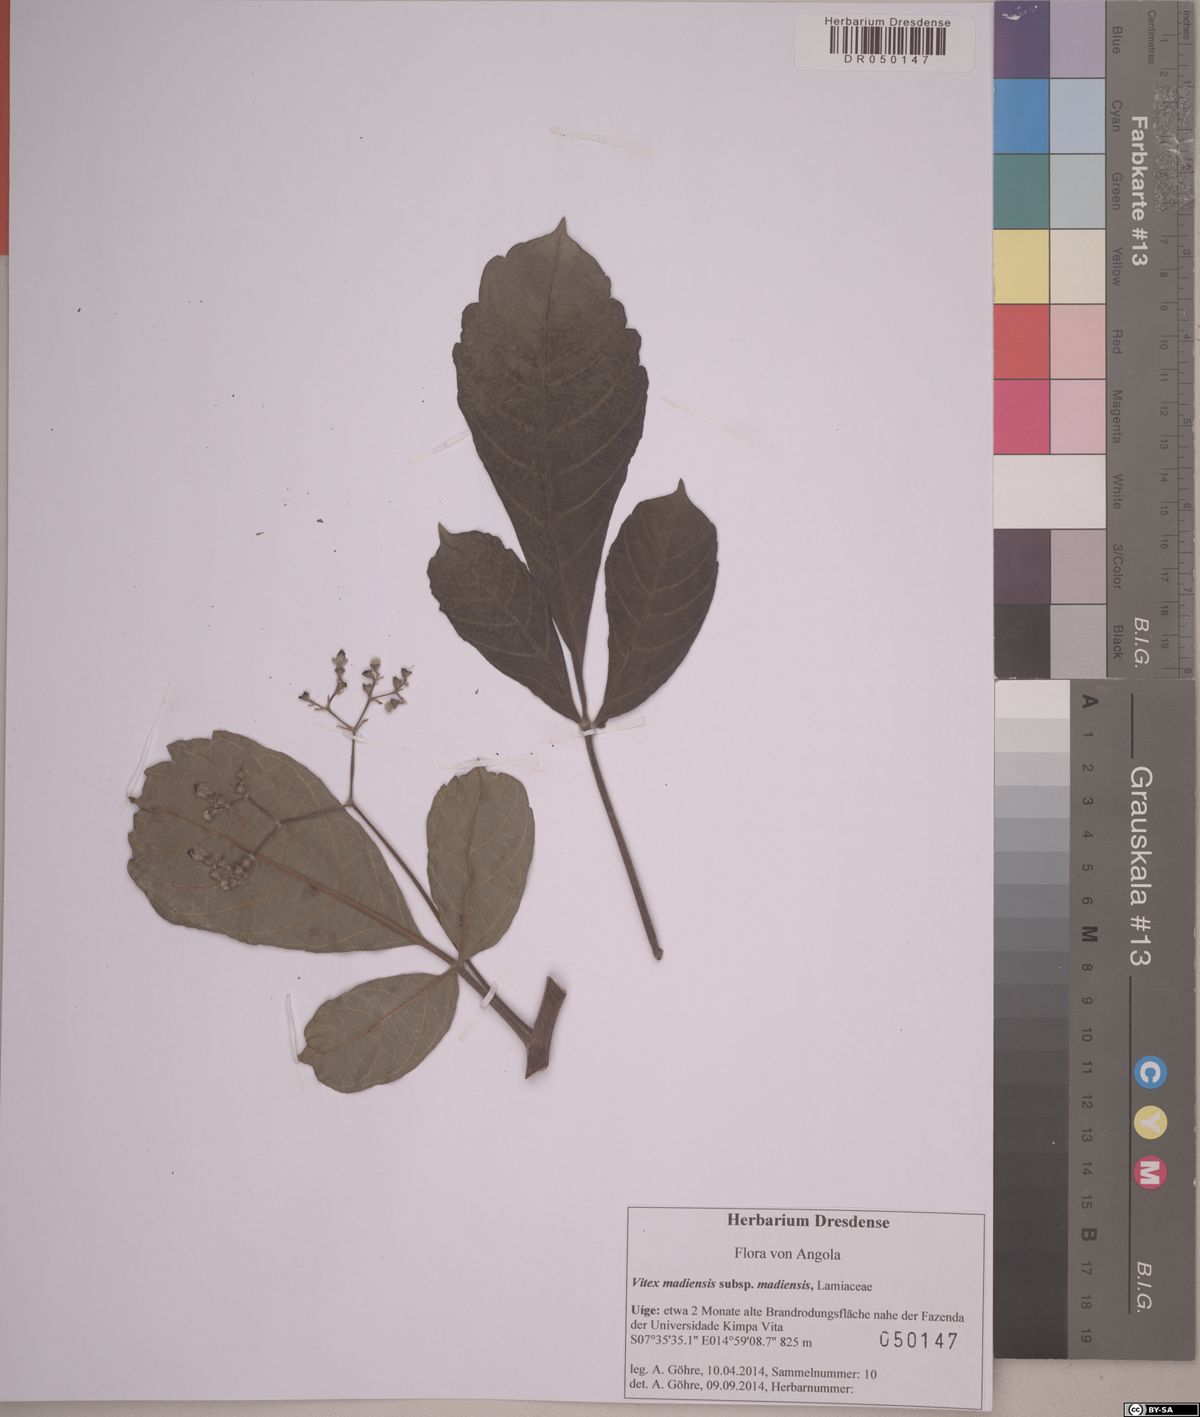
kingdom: Plantae
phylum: Tracheophyta
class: Magnoliopsida
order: Lamiales
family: Lamiaceae
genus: Vitex
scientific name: Vitex madiensis
